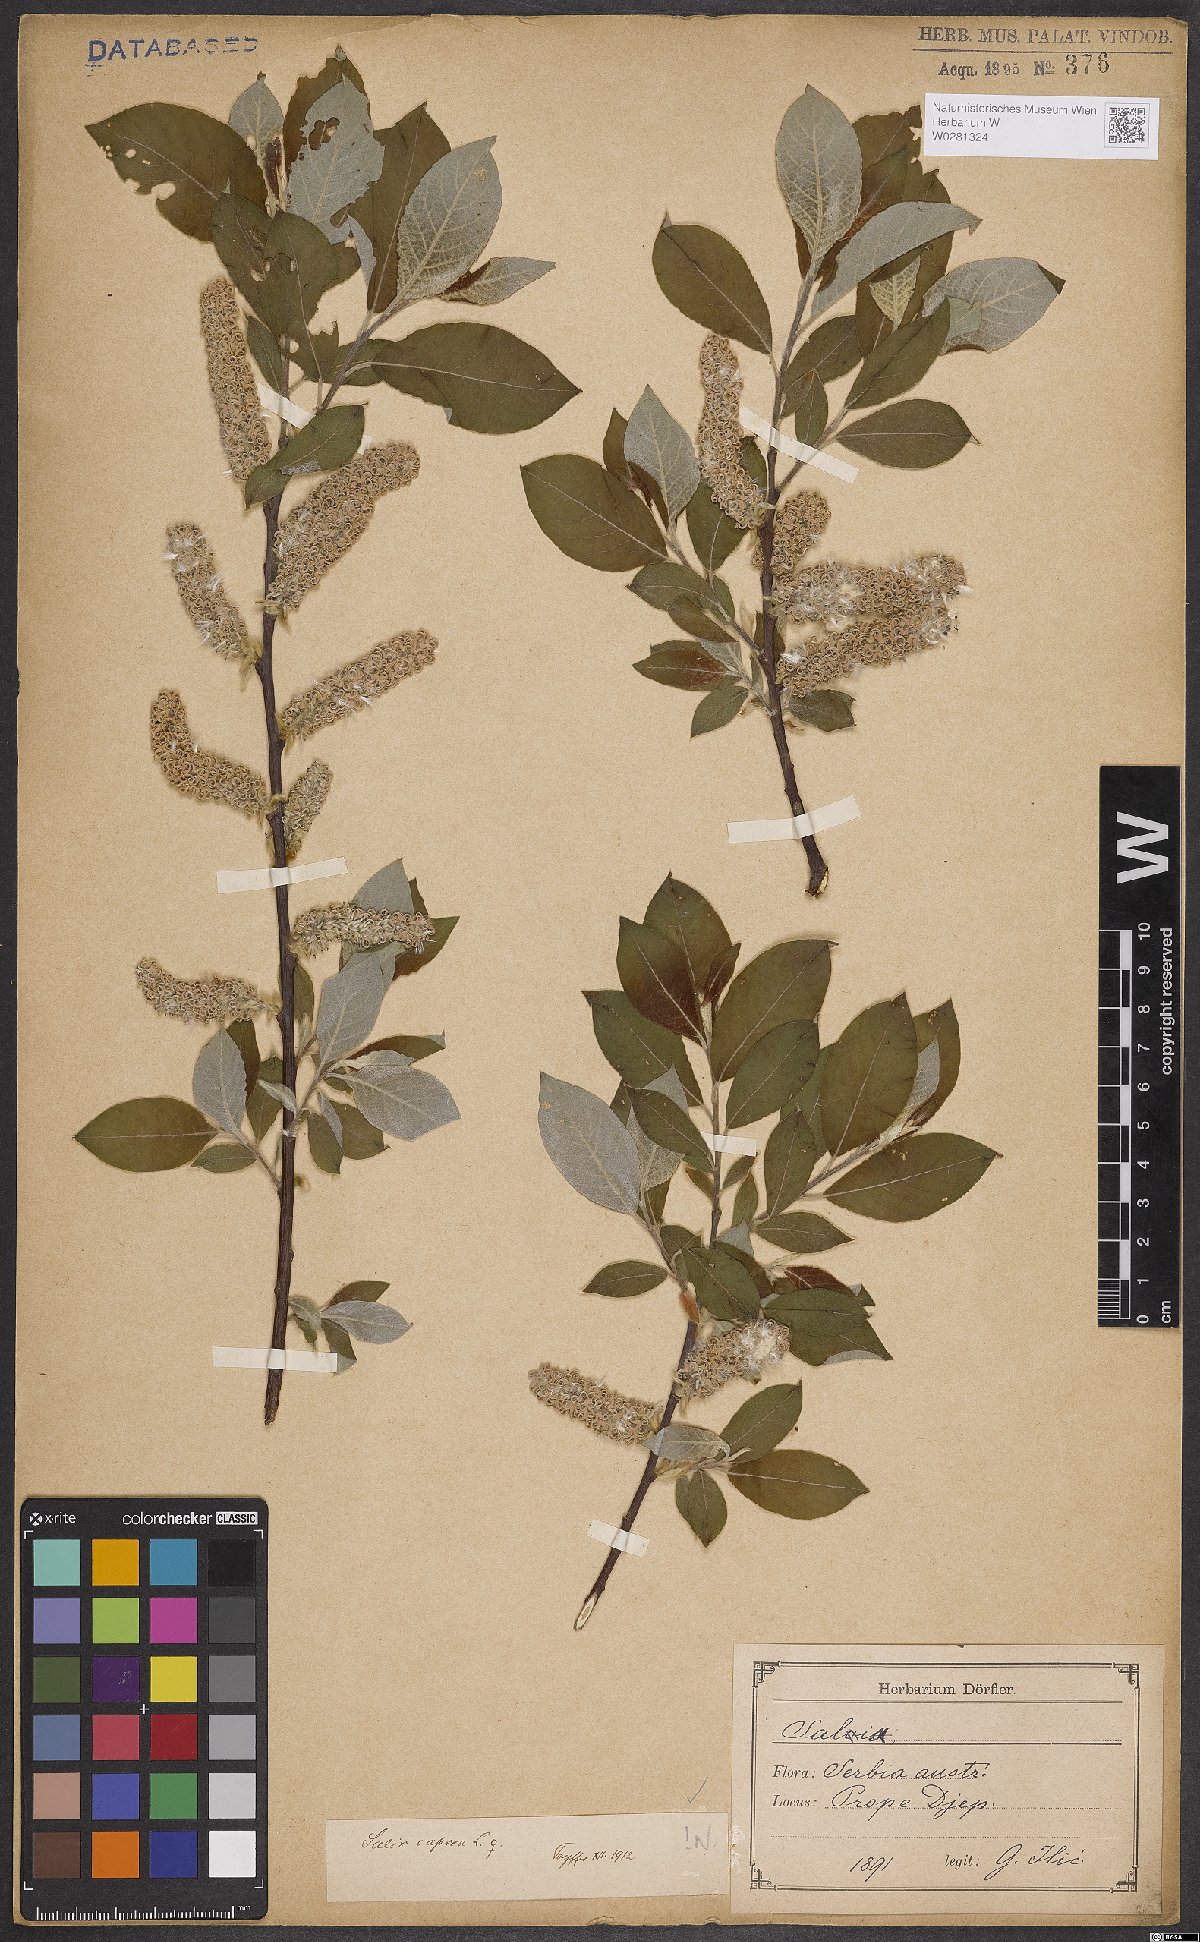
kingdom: Plantae
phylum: Tracheophyta
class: Magnoliopsida
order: Malpighiales
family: Salicaceae
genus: Salix
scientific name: Salix caprea
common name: Goat willow
